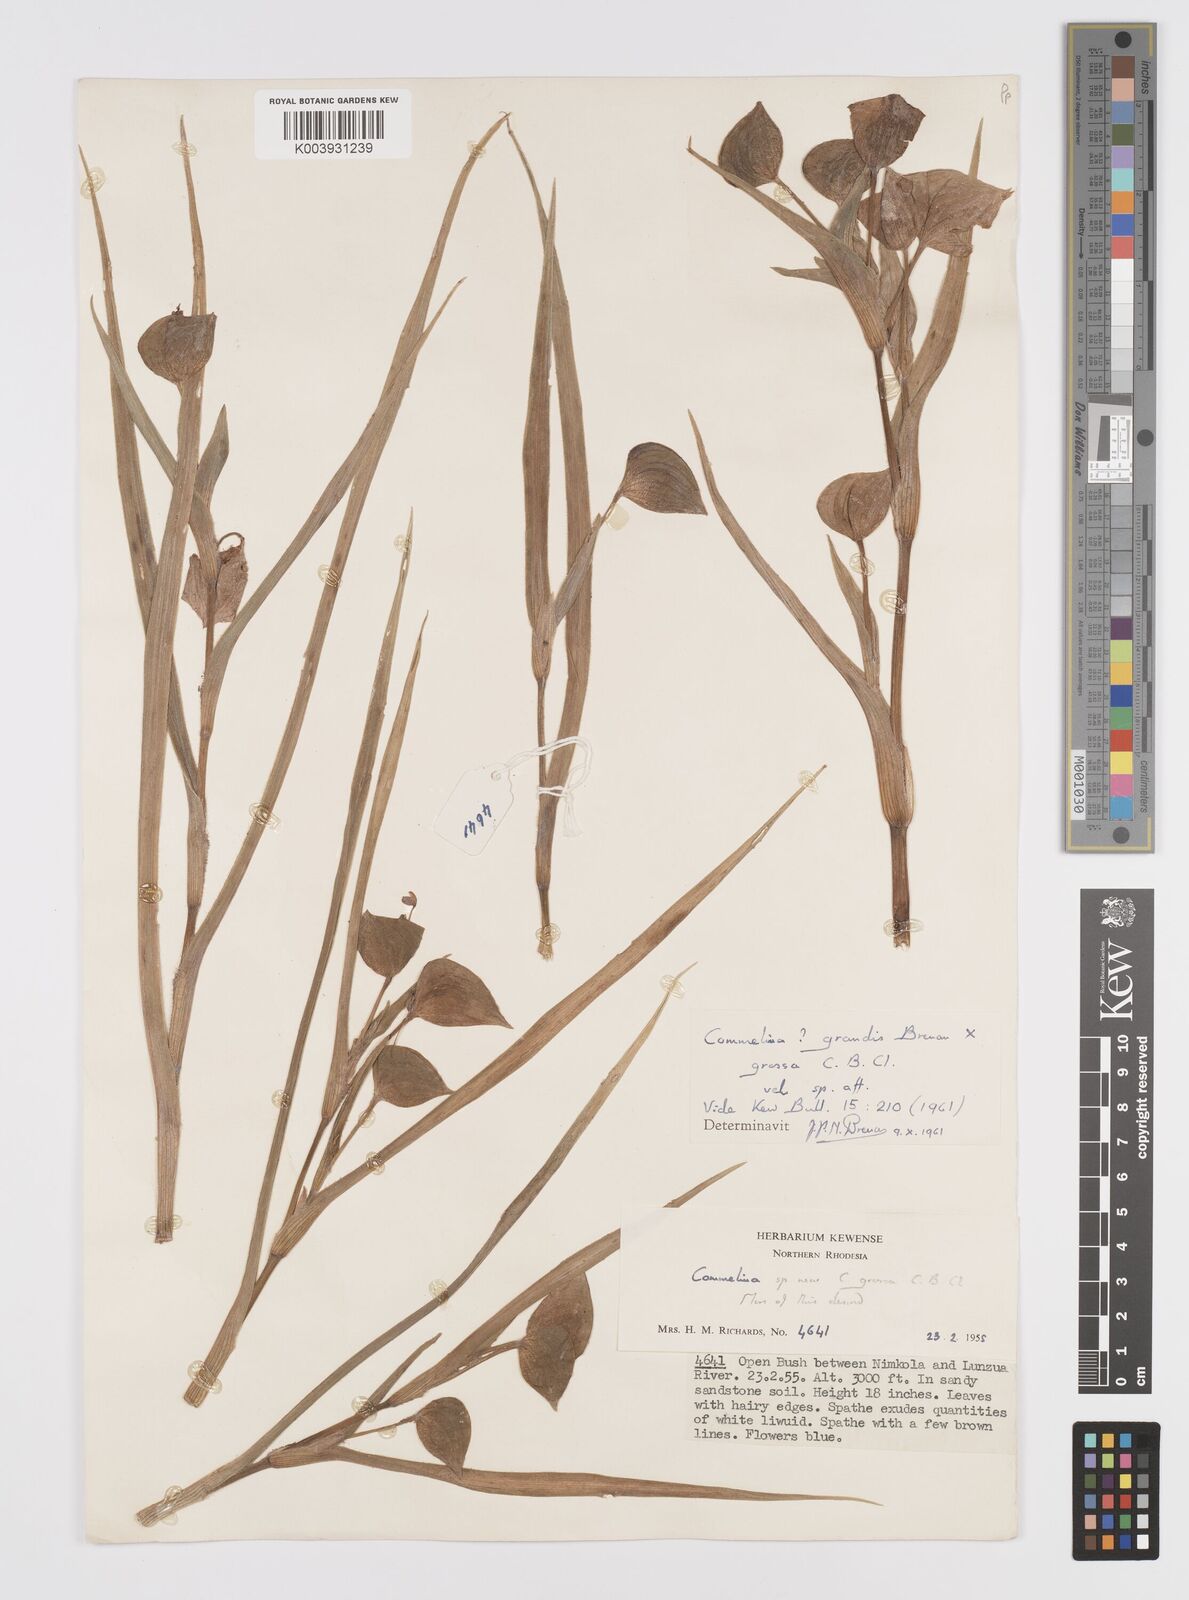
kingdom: Plantae
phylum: Tracheophyta
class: Liliopsida
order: Commelinales
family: Commelinaceae
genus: Commelina
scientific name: Commelina grandis
